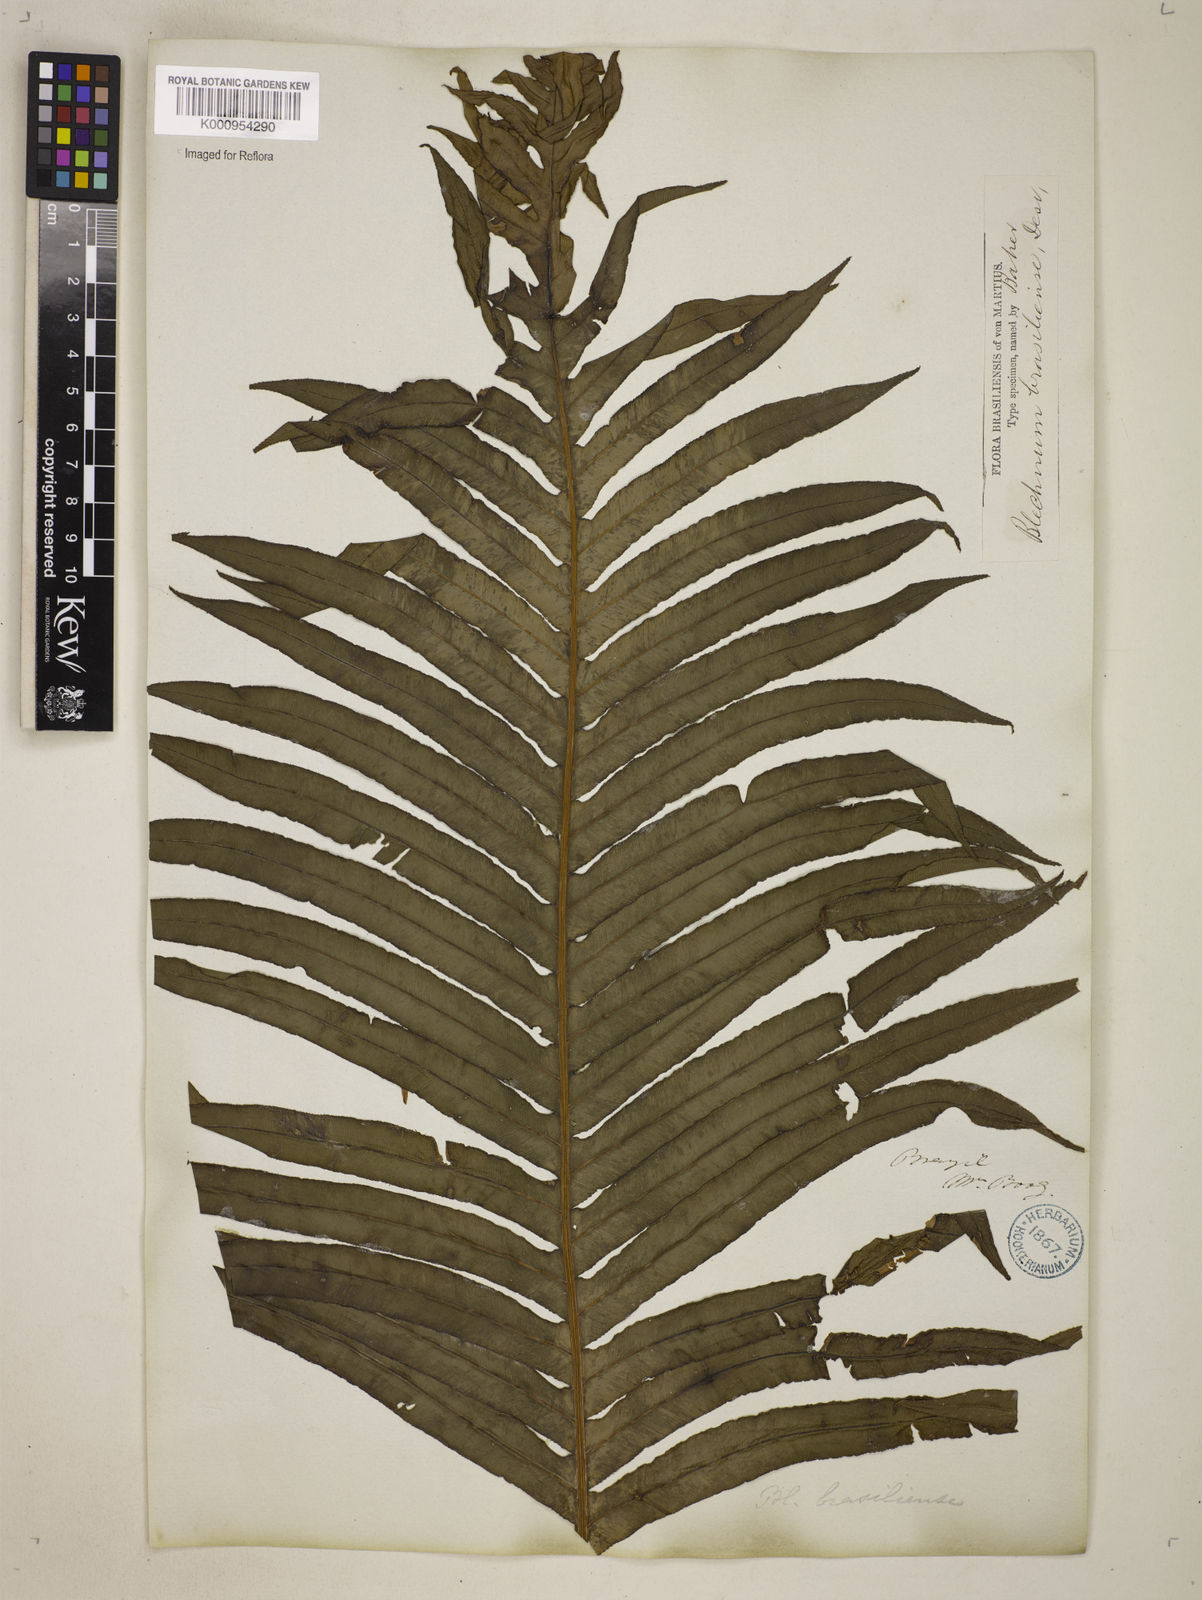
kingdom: Plantae
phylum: Tracheophyta
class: Polypodiopsida
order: Polypodiales
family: Blechnaceae
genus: Neoblechnum
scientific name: Neoblechnum brasiliense
